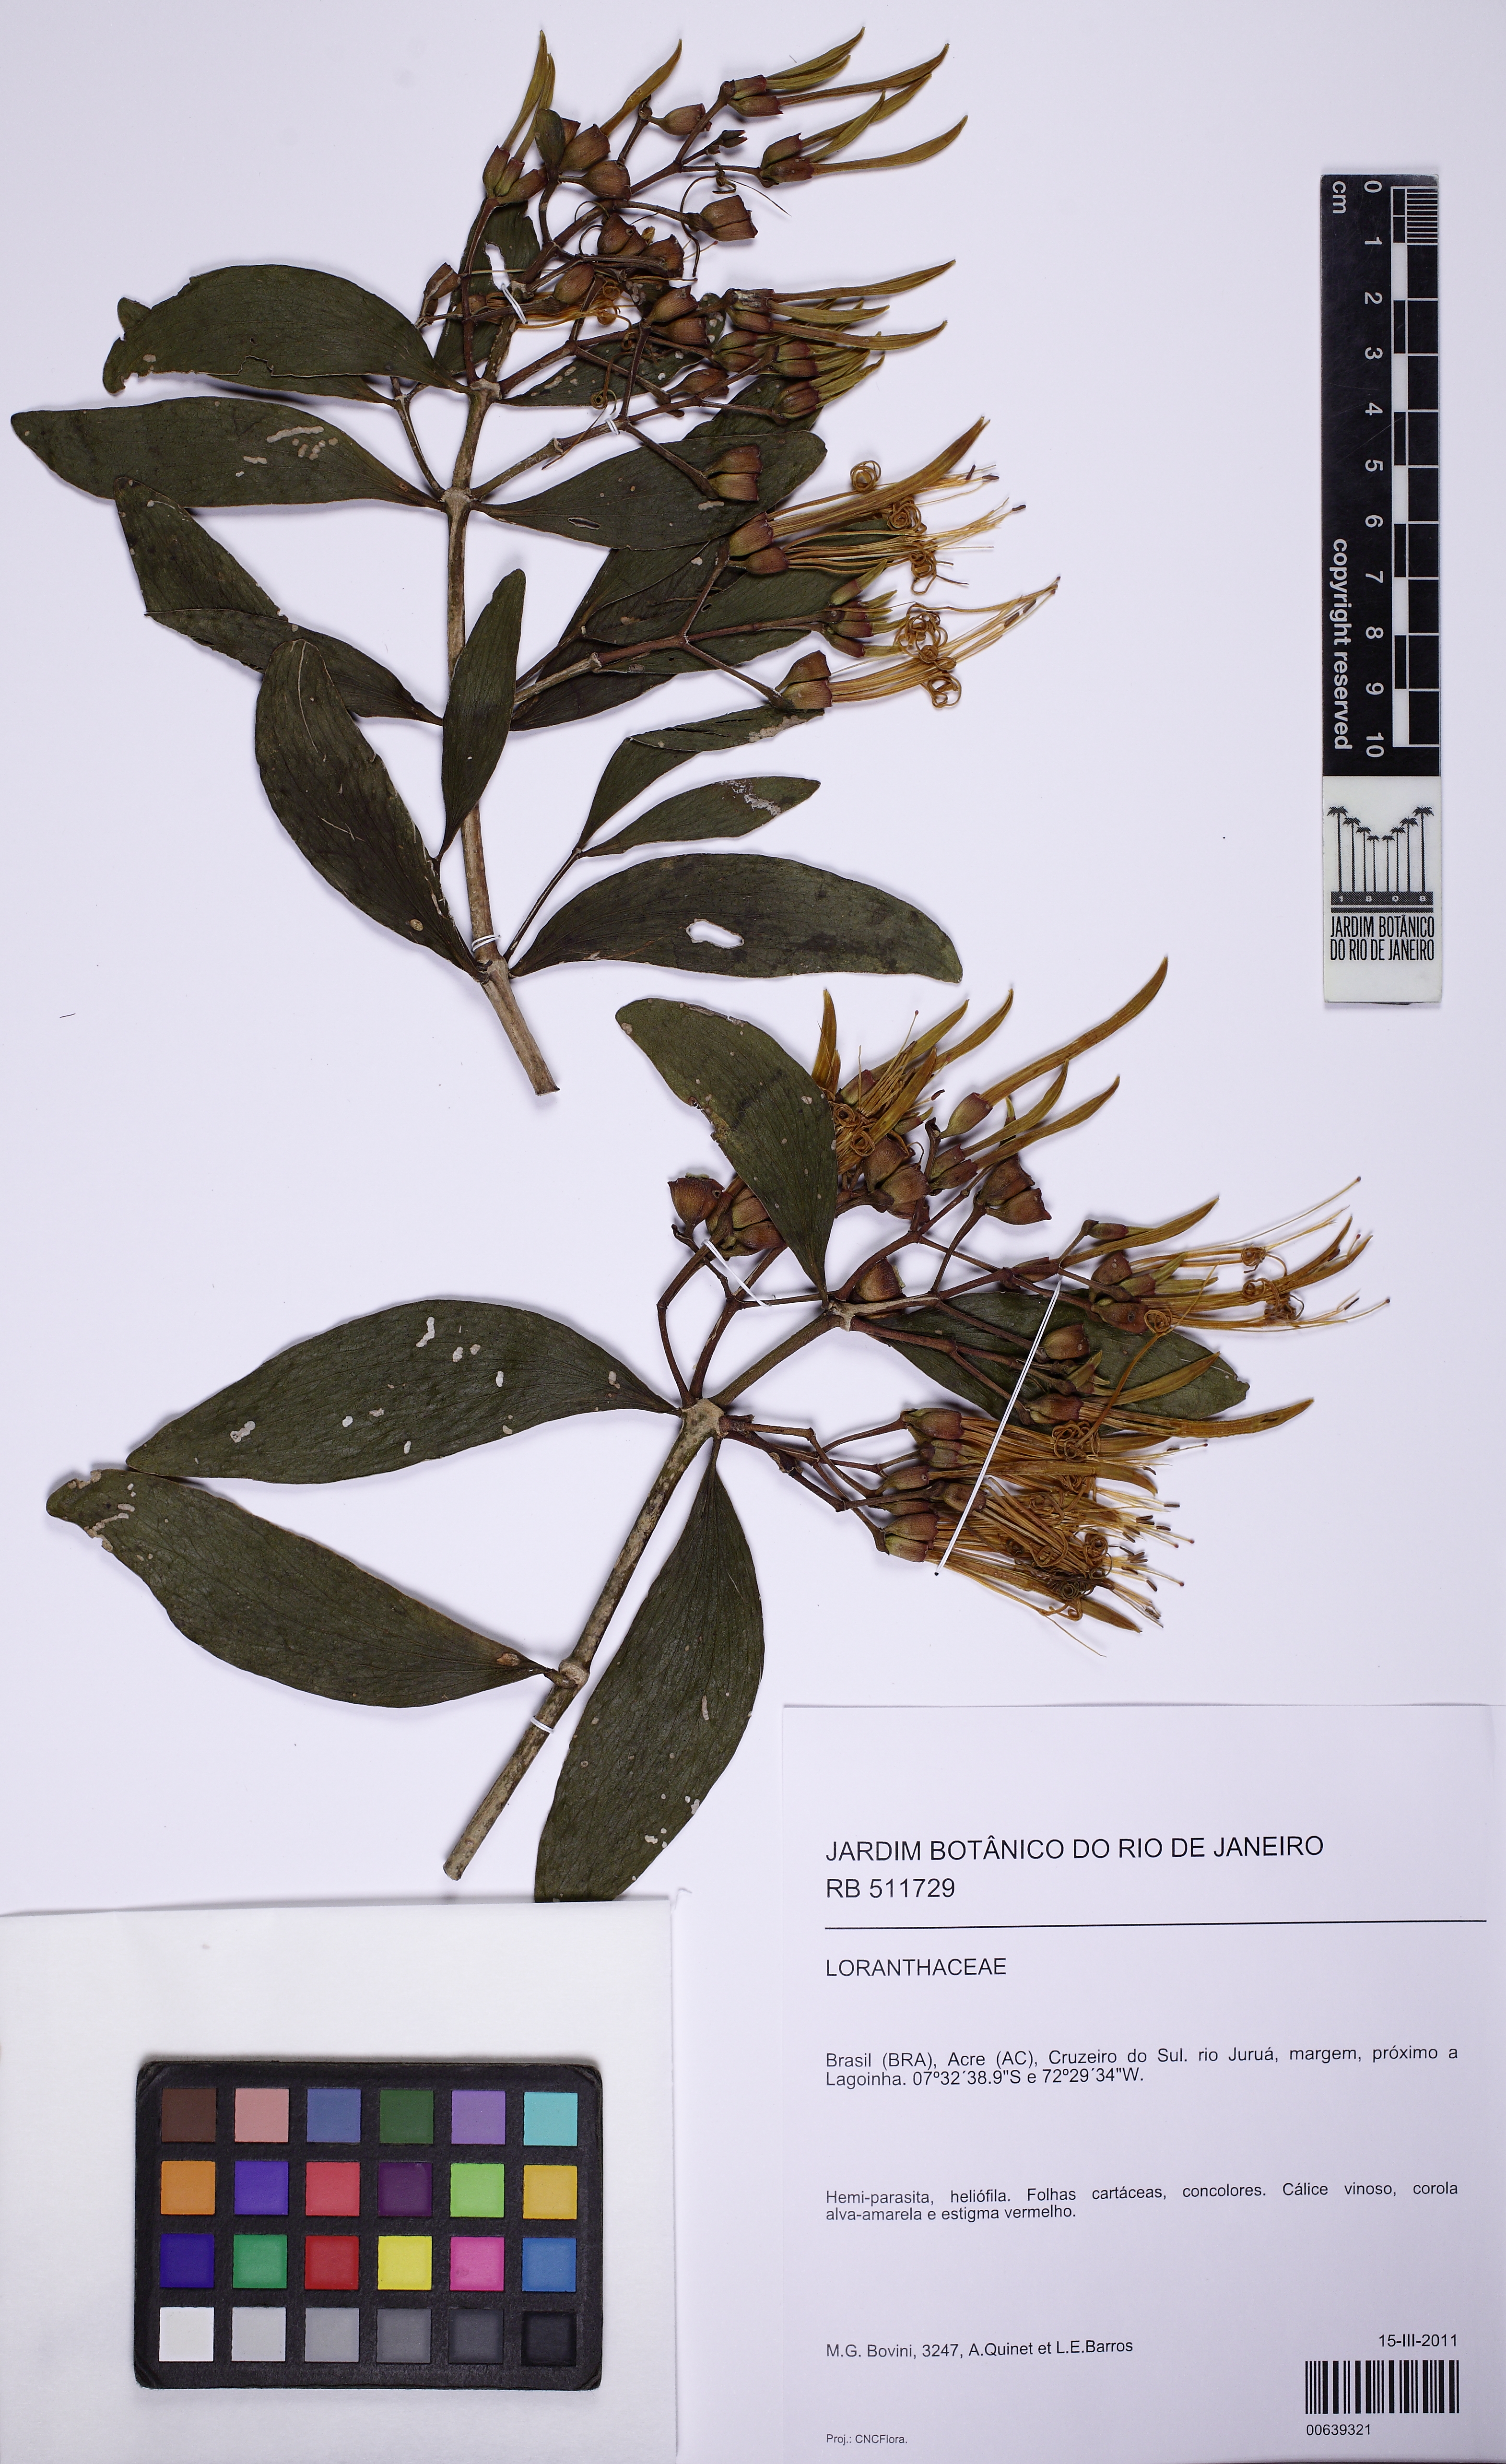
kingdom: Plantae
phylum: Tracheophyta
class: Magnoliopsida
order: Santalales
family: Loranthaceae
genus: Psittacanthus
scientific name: Psittacanthus cucullaris
